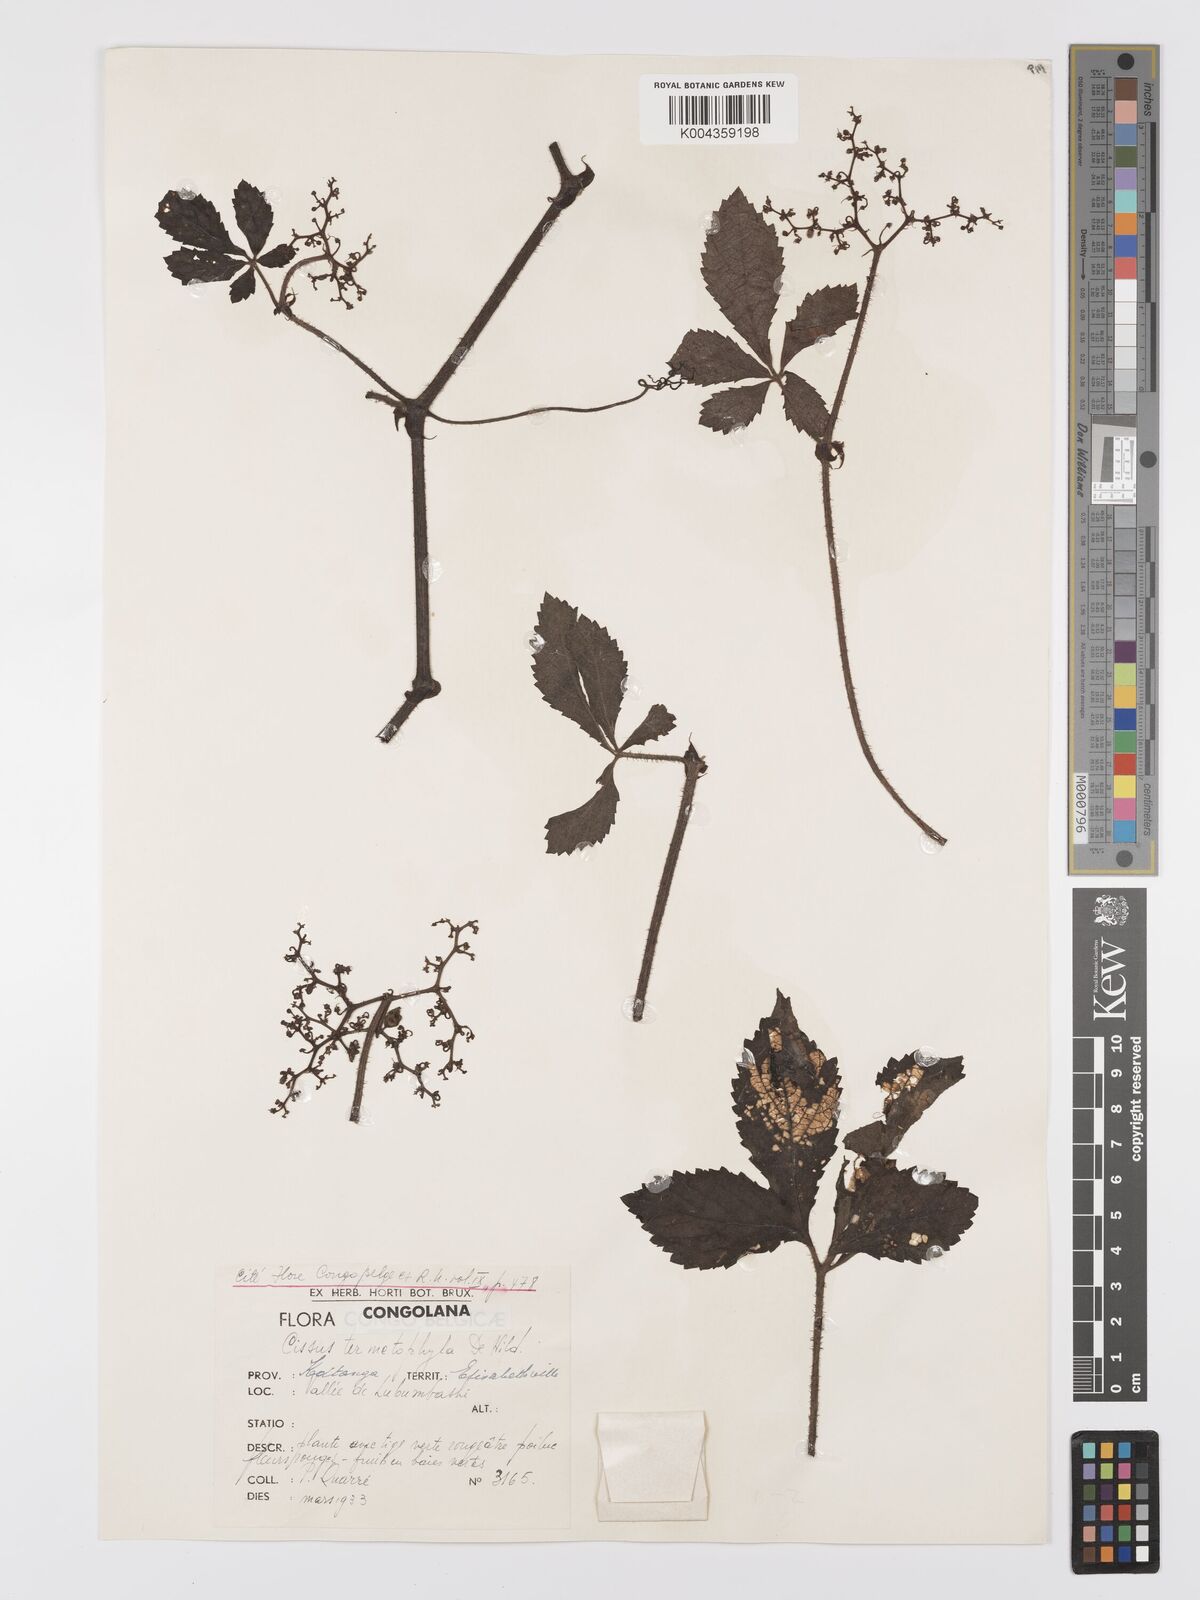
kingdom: Plantae
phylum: Tracheophyta
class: Magnoliopsida
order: Vitales
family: Vitaceae
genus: Cyphostemma
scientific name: Cyphostemma mildbraedii
